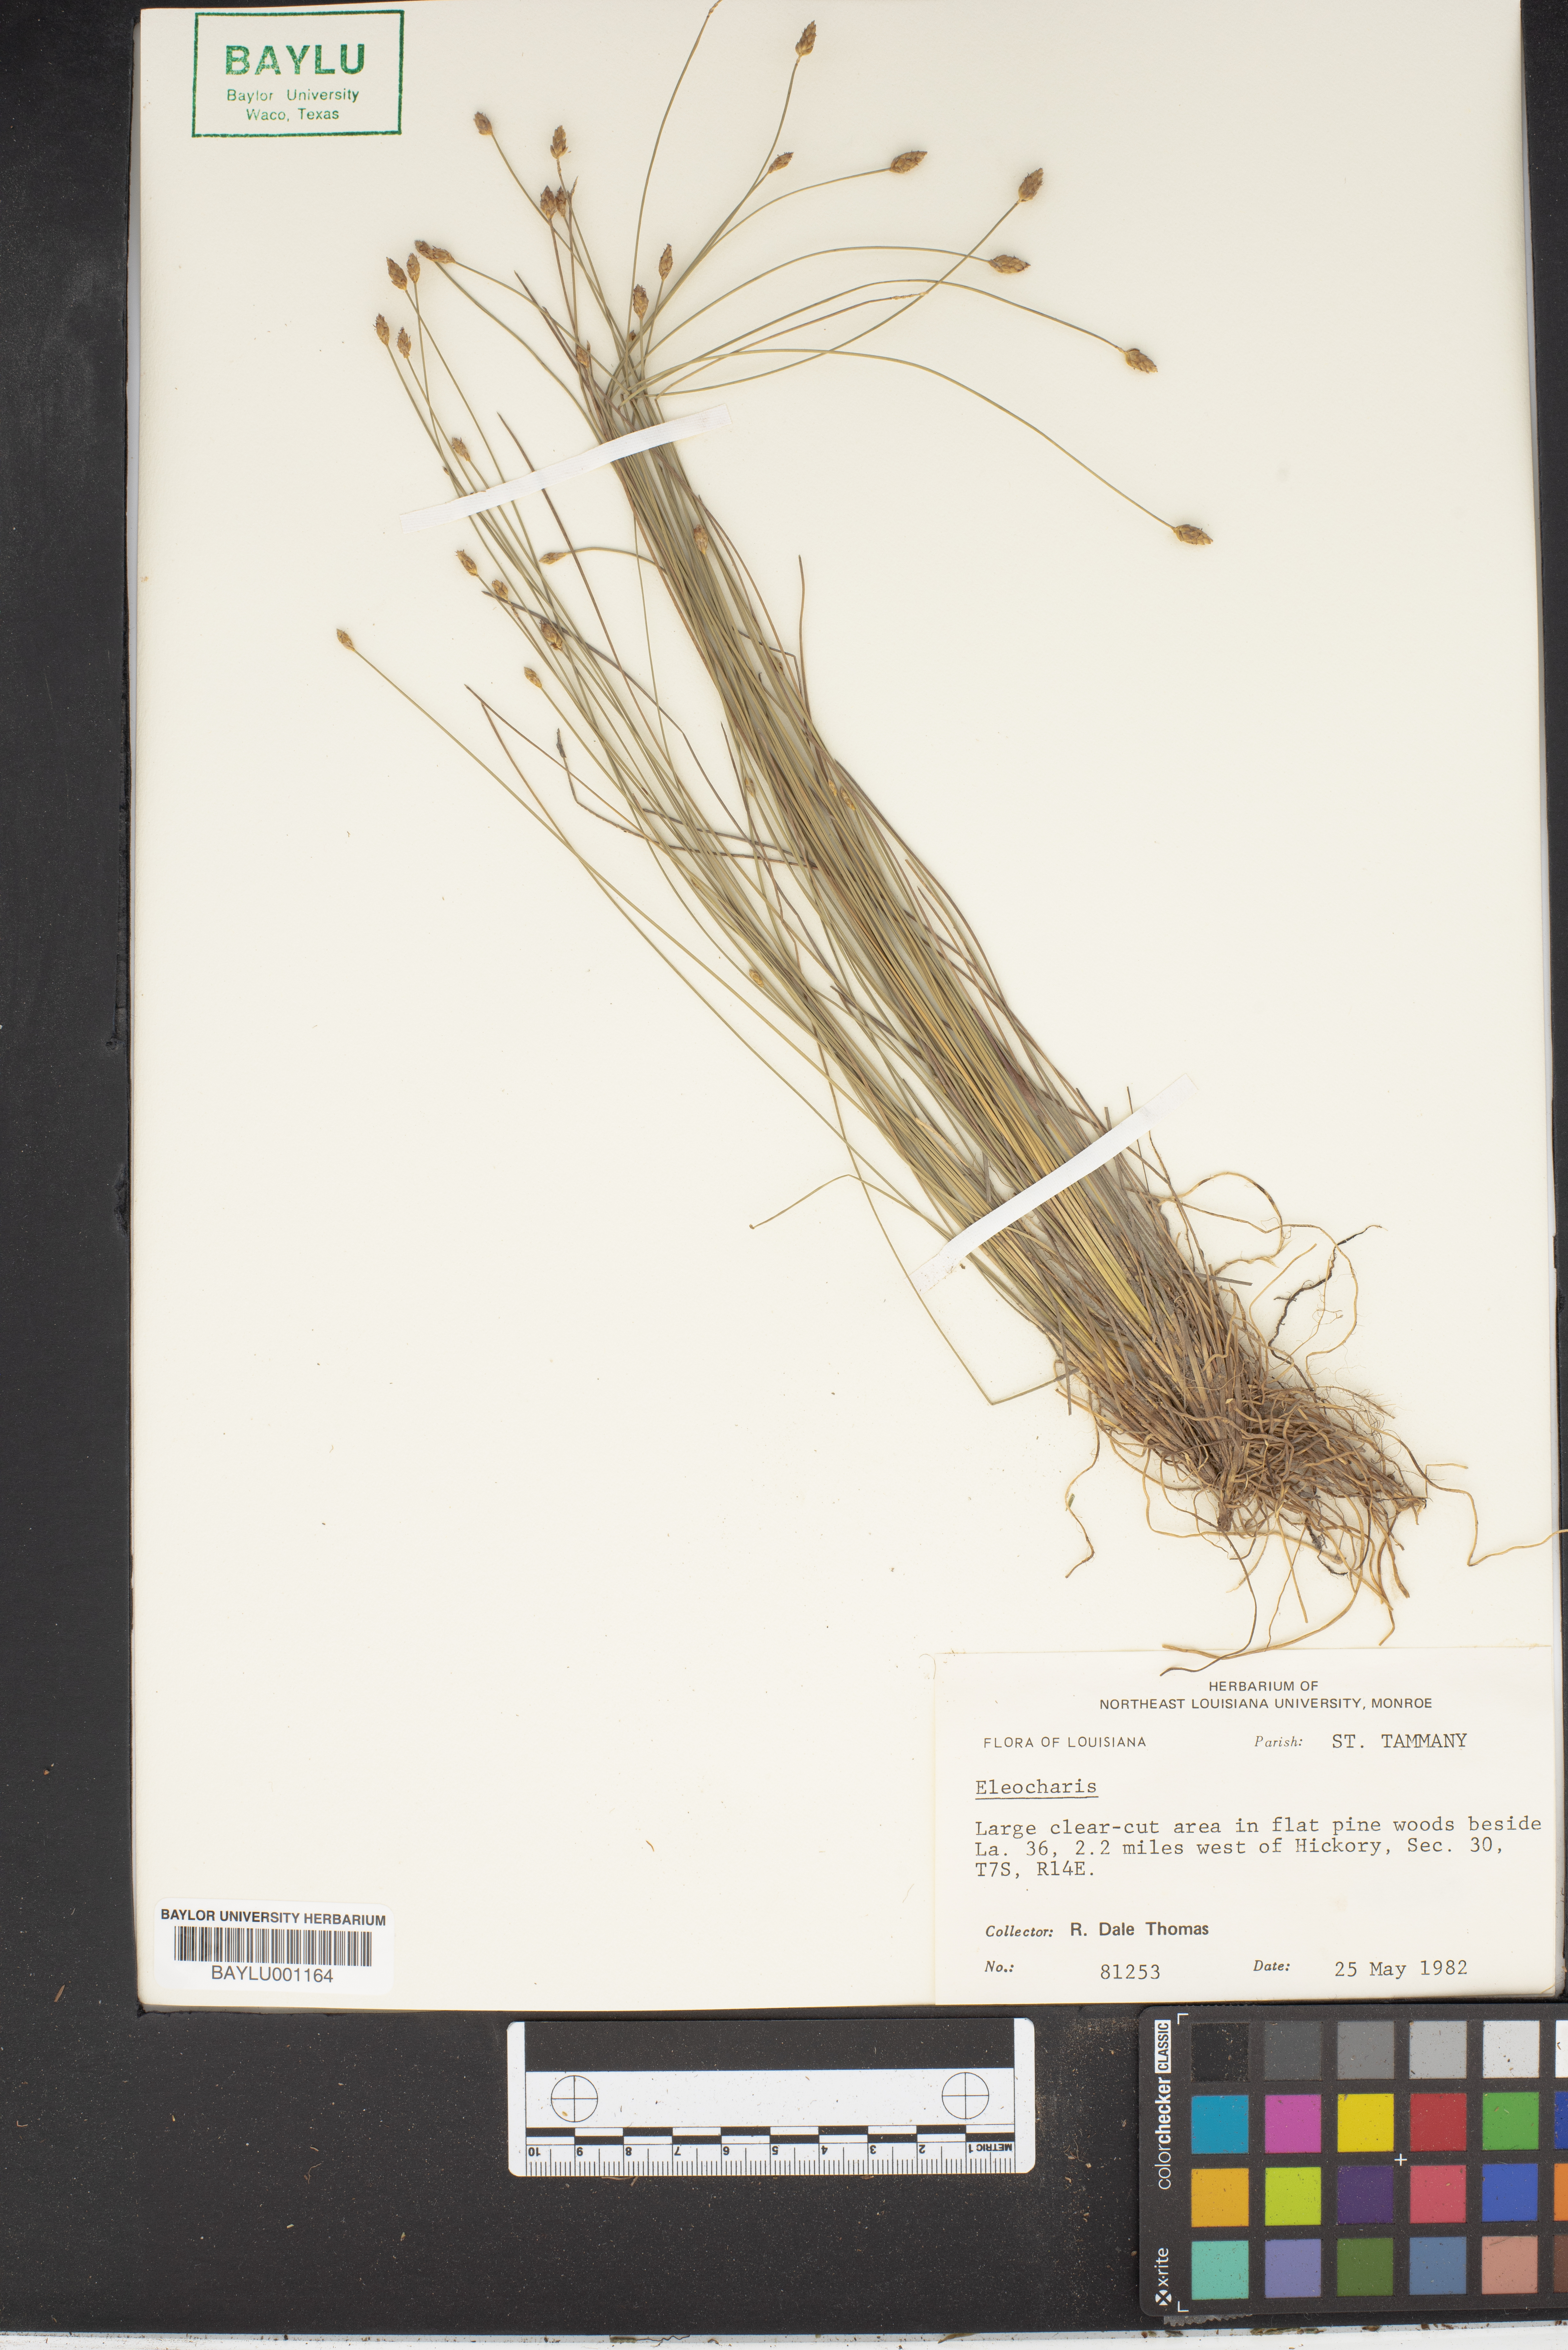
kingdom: Plantae
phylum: Tracheophyta
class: Liliopsida
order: Poales
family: Cyperaceae
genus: Eleocharis
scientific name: Eleocharis
